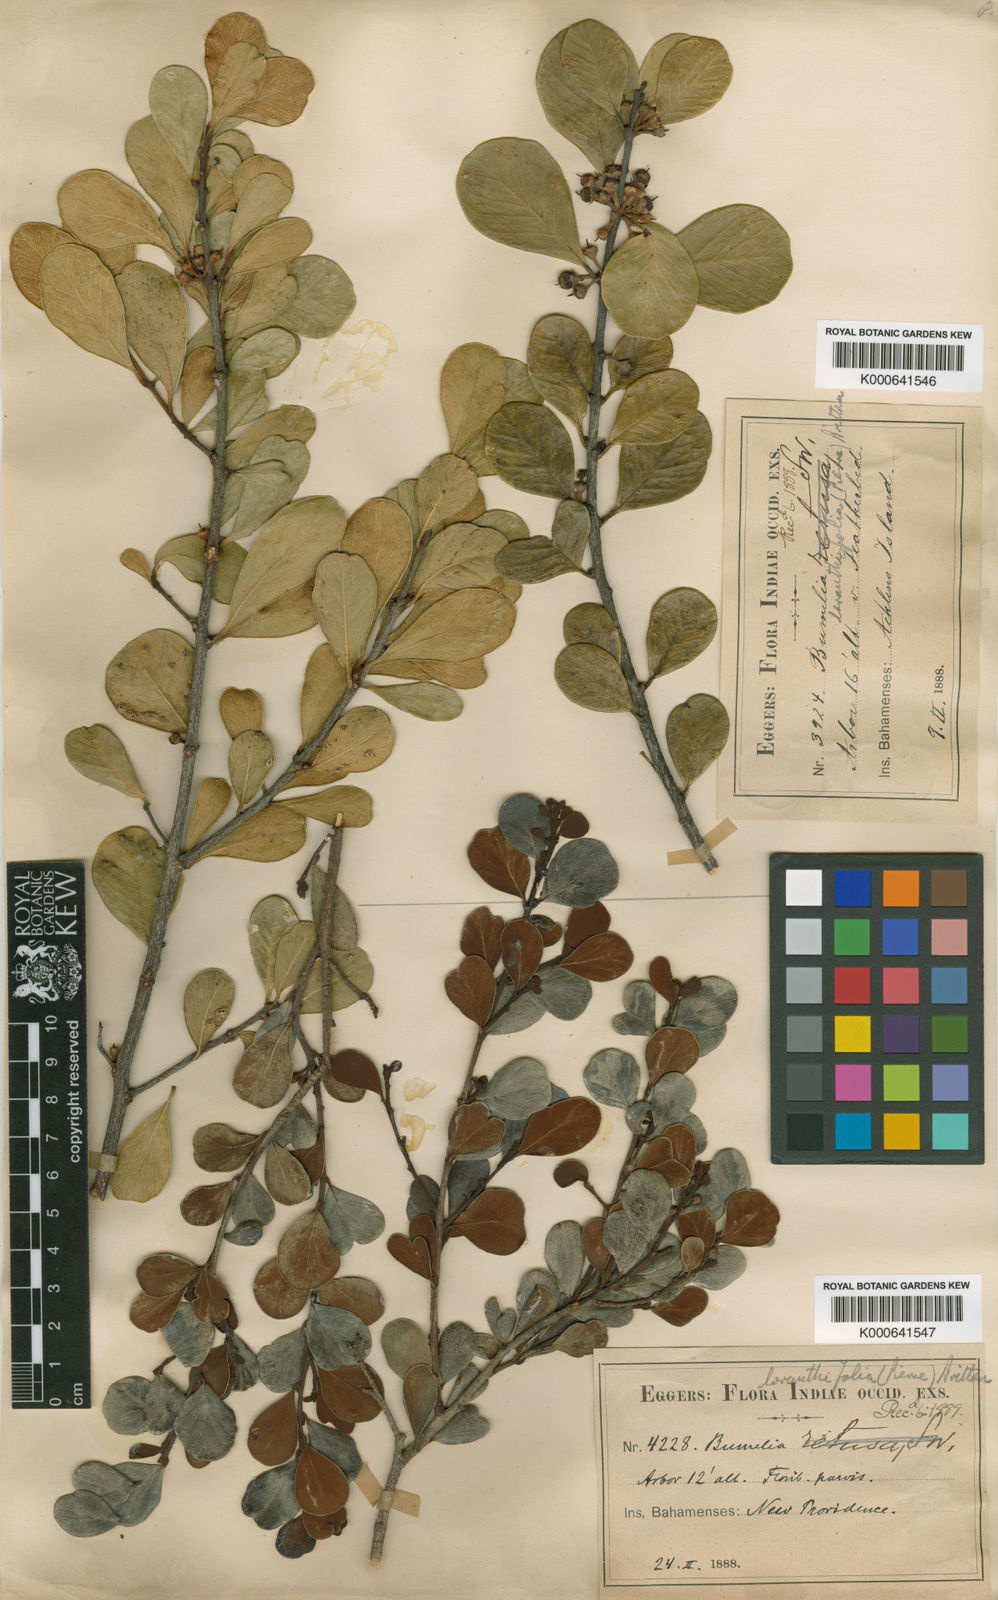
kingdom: Plantae
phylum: Tracheophyta
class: Magnoliopsida
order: Ericales
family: Sapotaceae
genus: Sideroxylon
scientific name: Sideroxylon americanum
